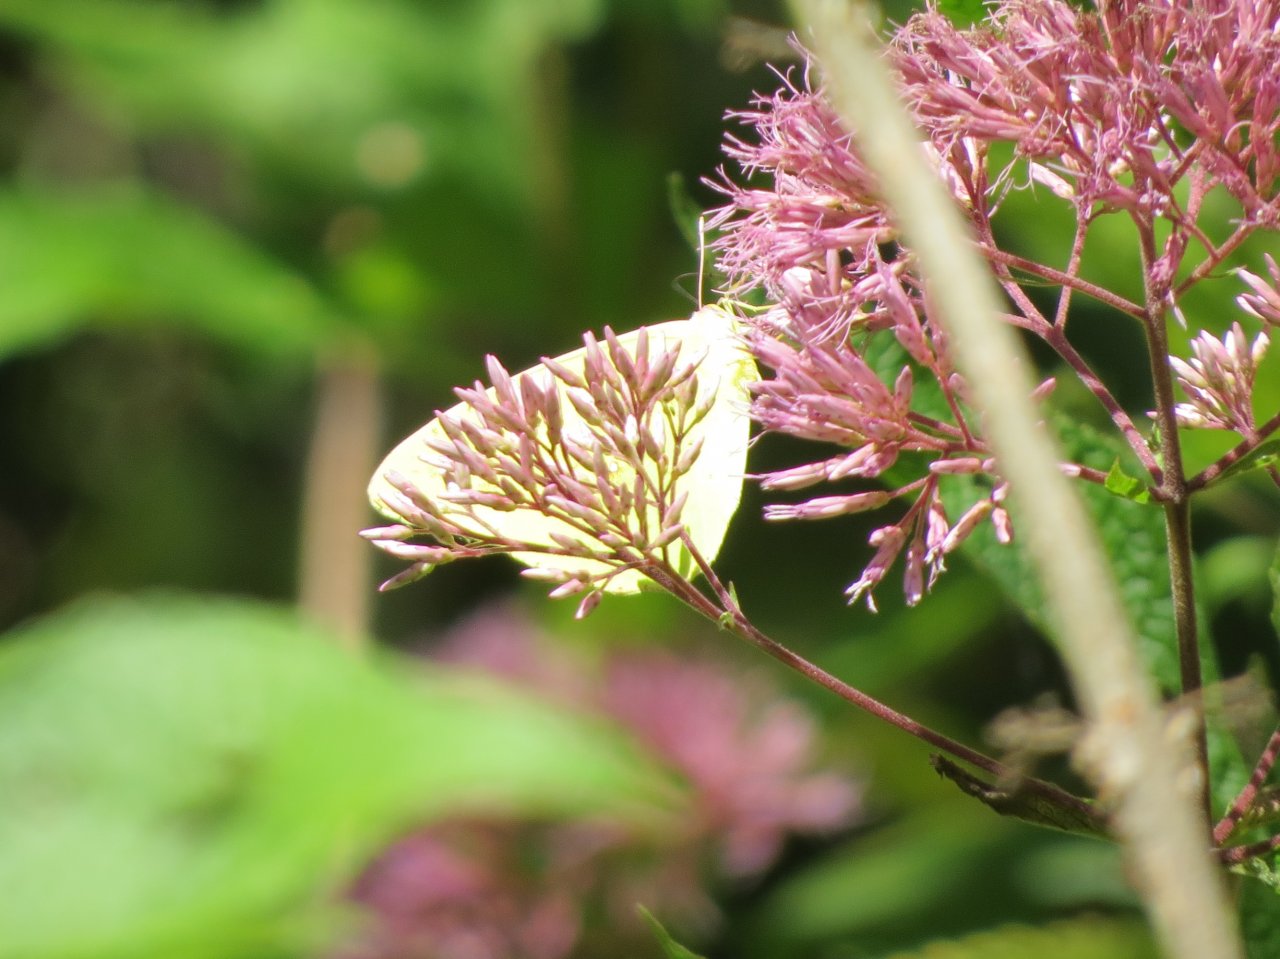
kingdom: Animalia
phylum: Arthropoda
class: Insecta
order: Lepidoptera
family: Pieridae
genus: Phoebis
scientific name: Phoebis sennae
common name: Cloudless Sulphur
